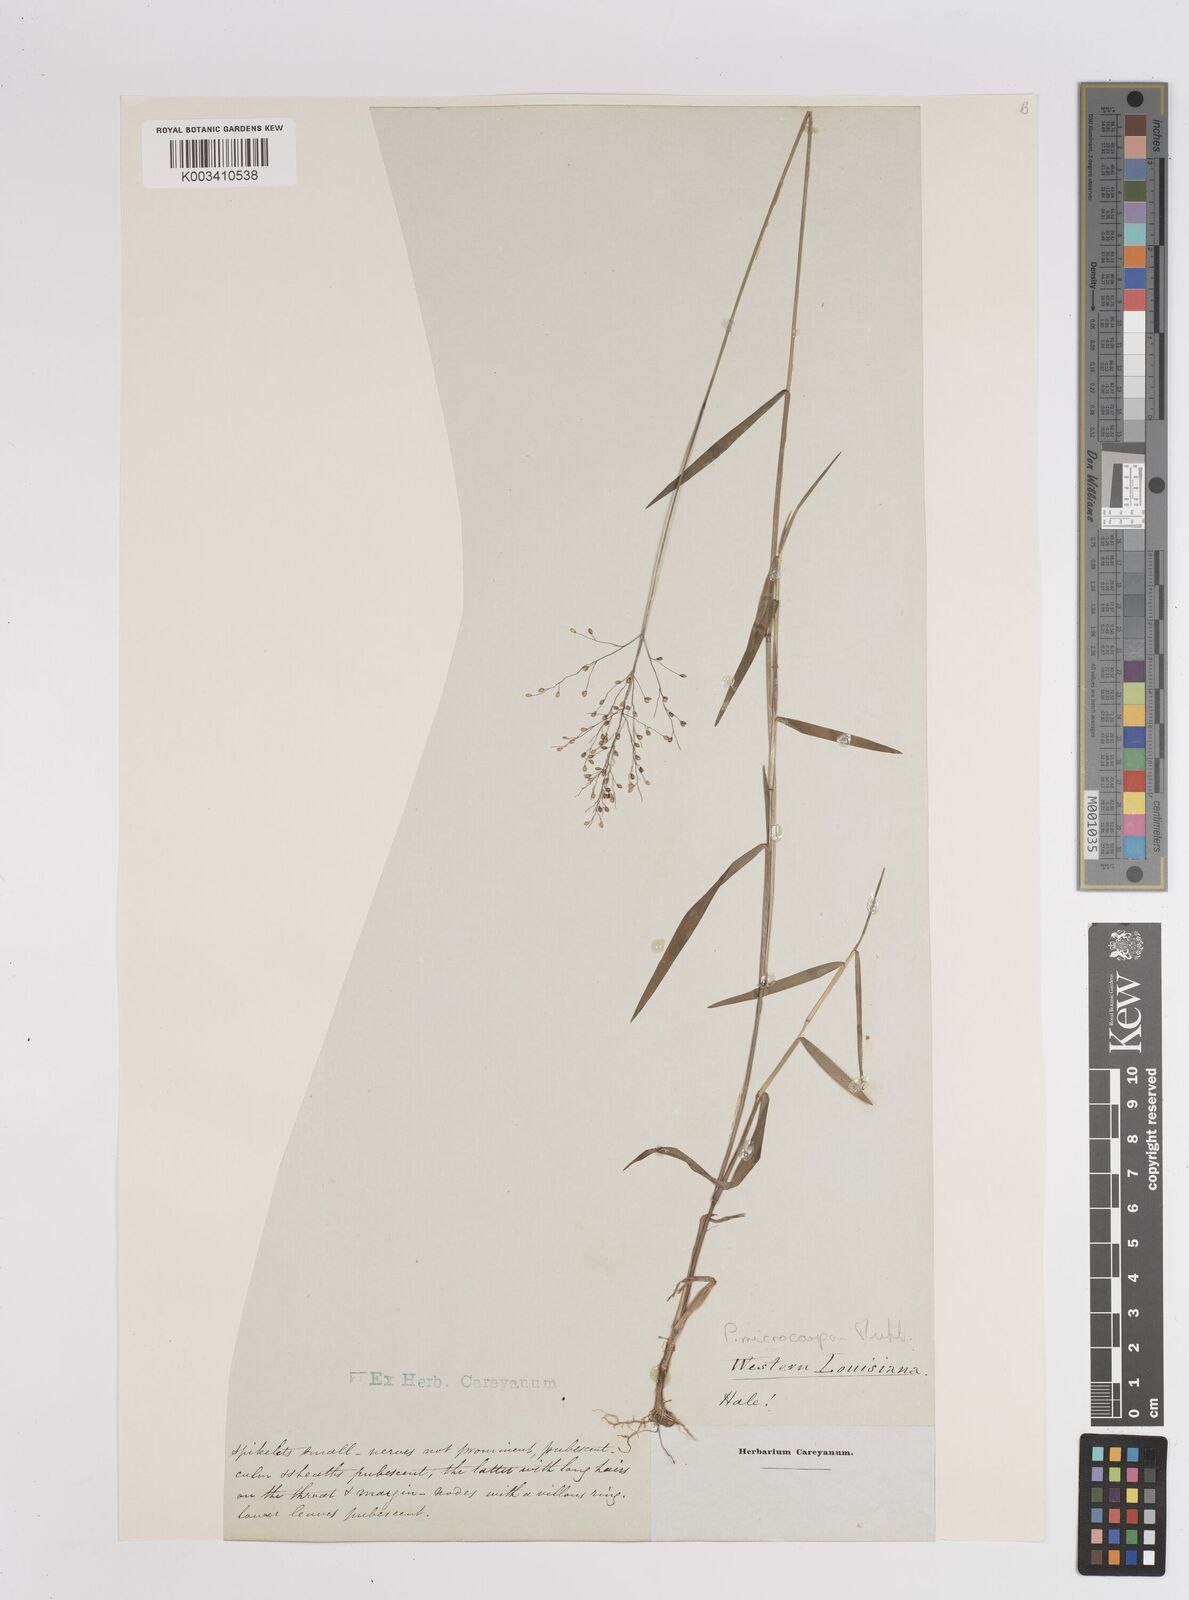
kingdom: Plantae
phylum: Tracheophyta
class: Liliopsida
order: Poales
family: Poaceae
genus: Dichanthelium
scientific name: Dichanthelium polyanthes
